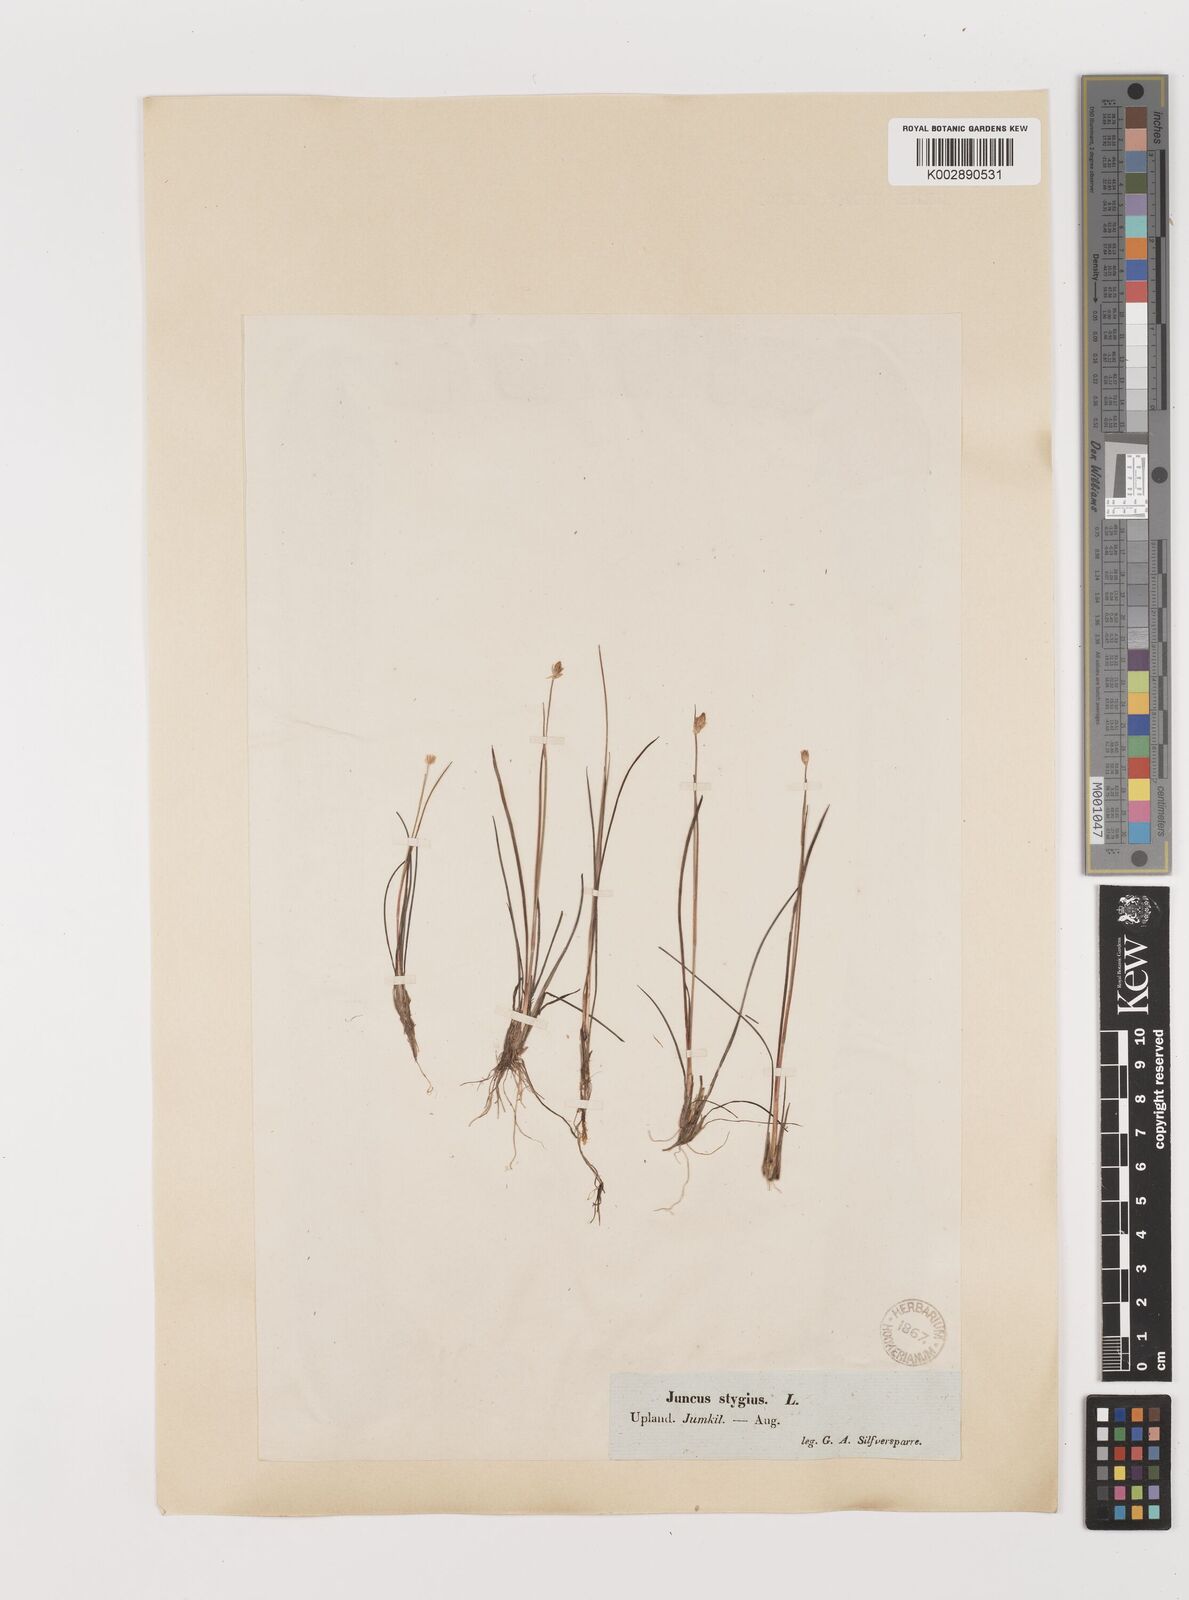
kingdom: Plantae
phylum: Tracheophyta
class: Liliopsida
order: Poales
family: Juncaceae
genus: Juncus
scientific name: Juncus stygius
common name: Bog rush
